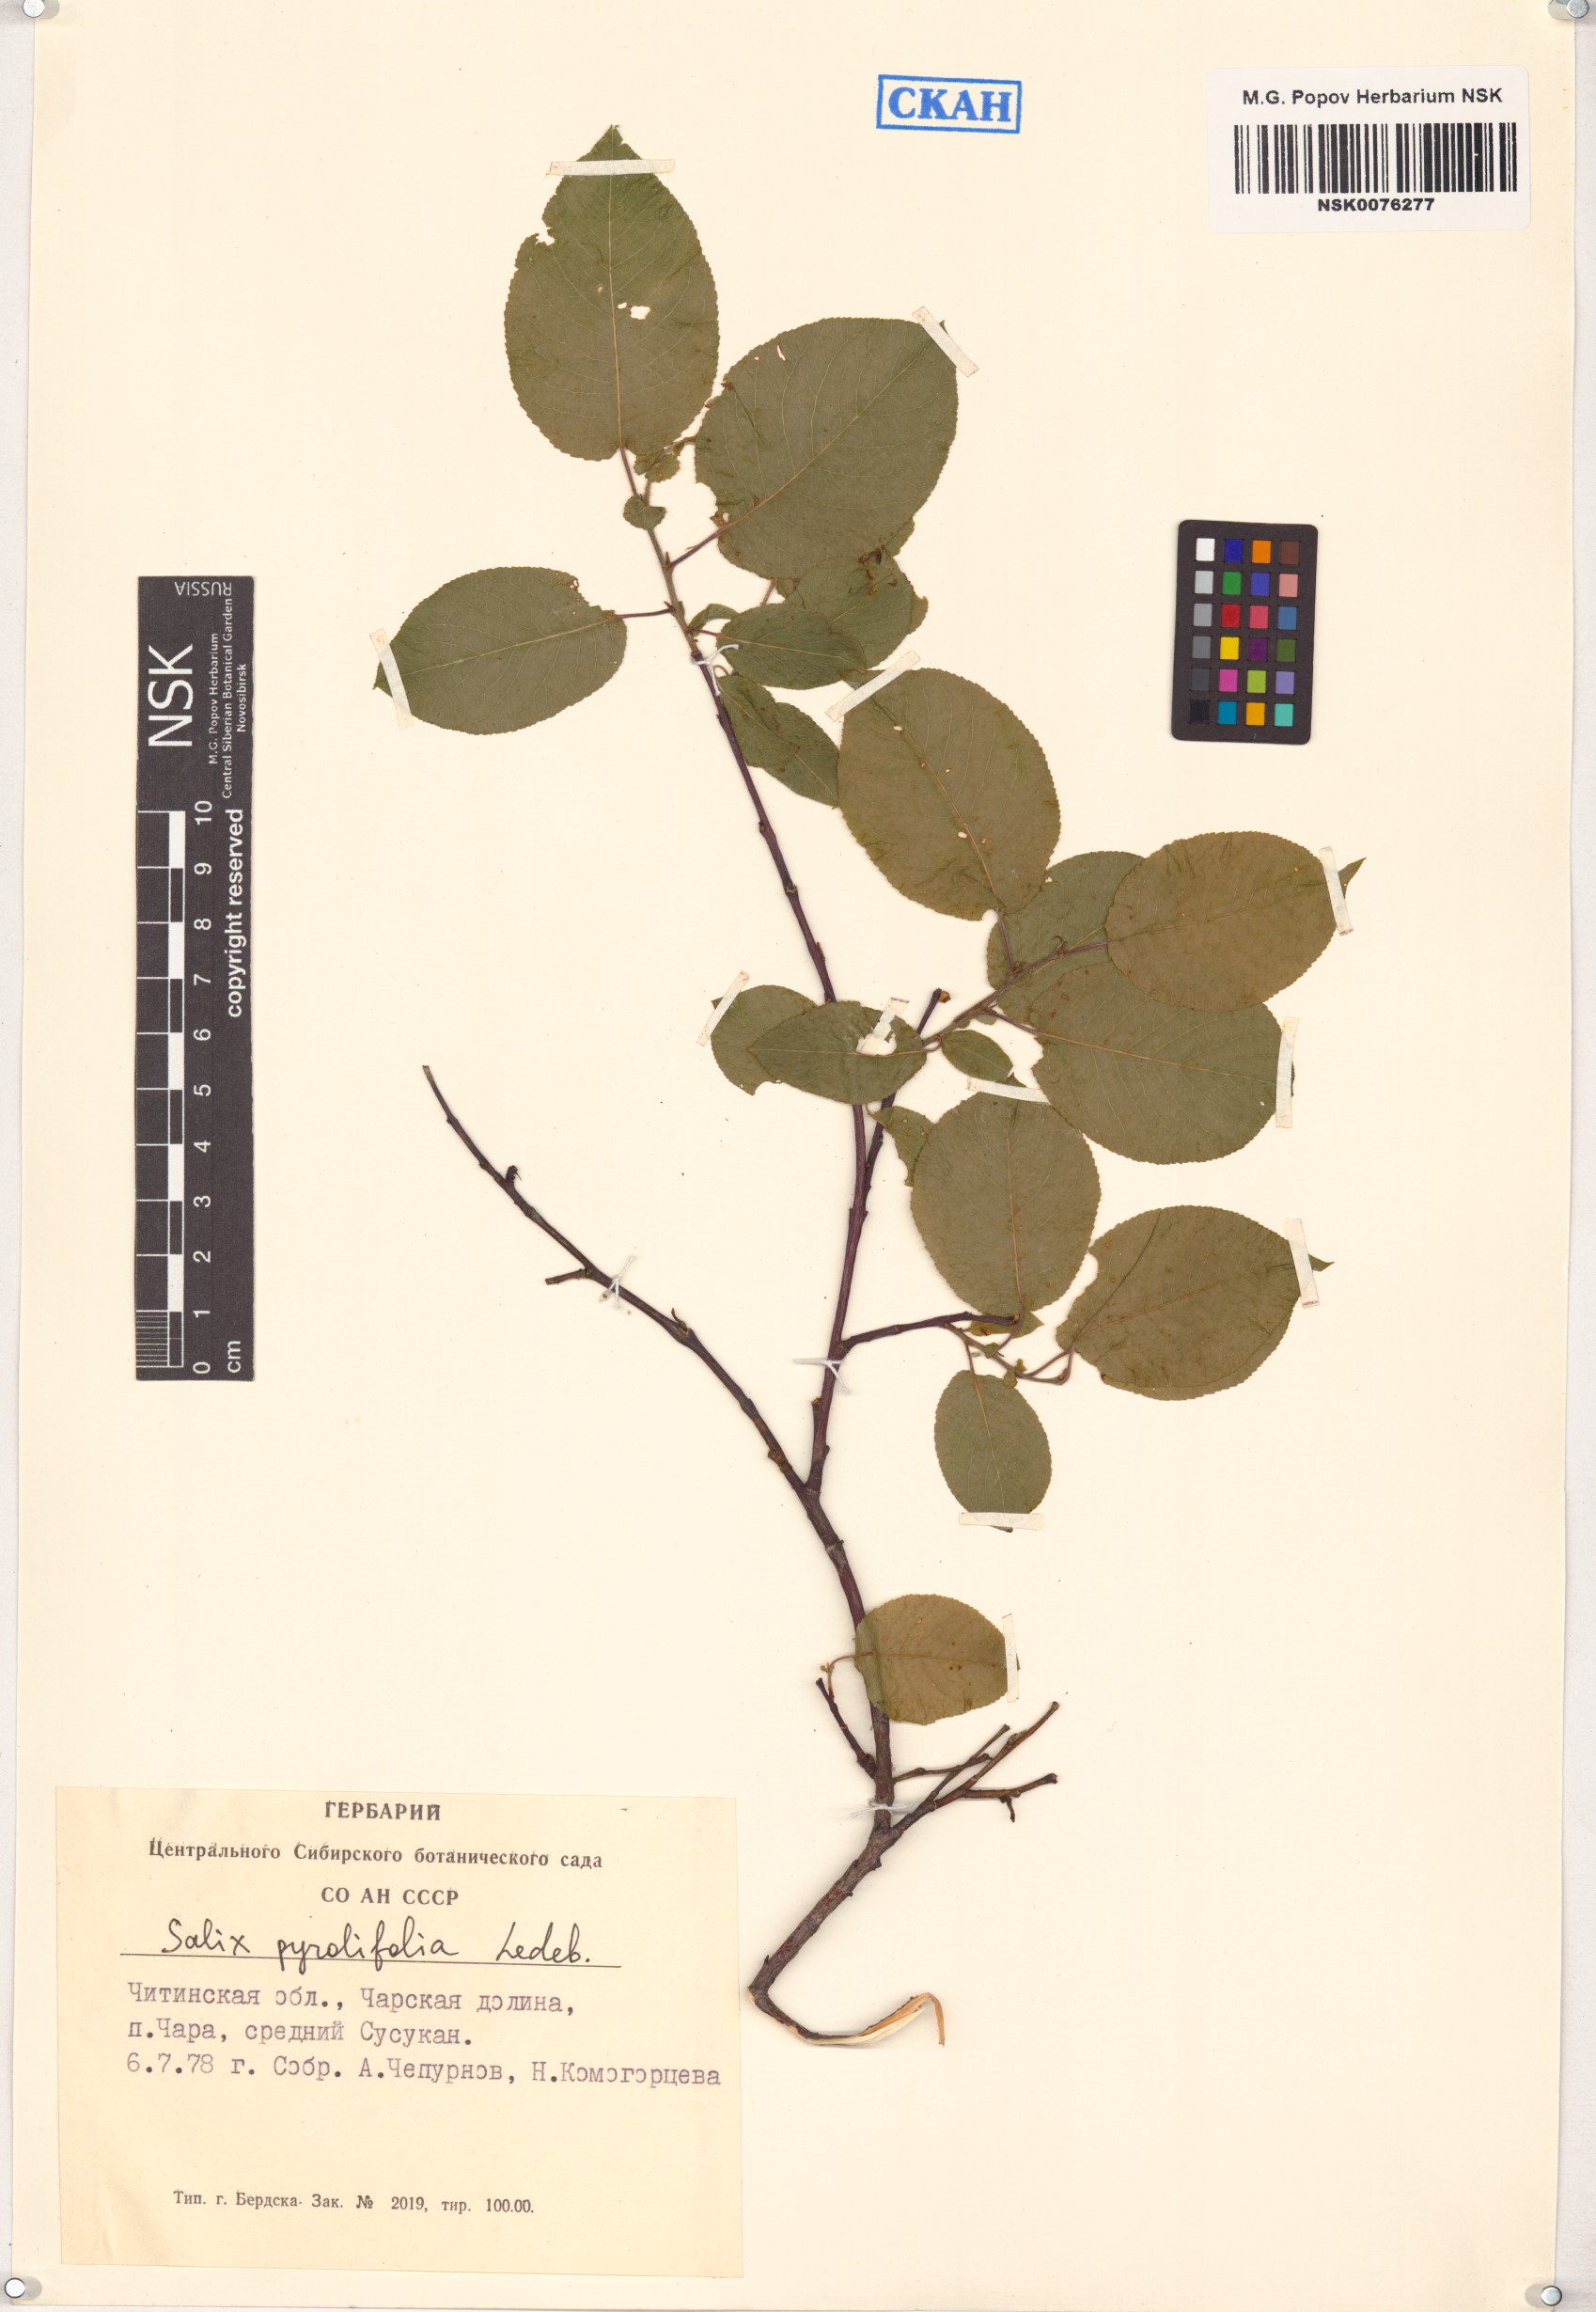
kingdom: Plantae
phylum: Tracheophyta
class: Magnoliopsida
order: Malpighiales
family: Salicaceae
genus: Salix
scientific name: Salix pyrolifolia
